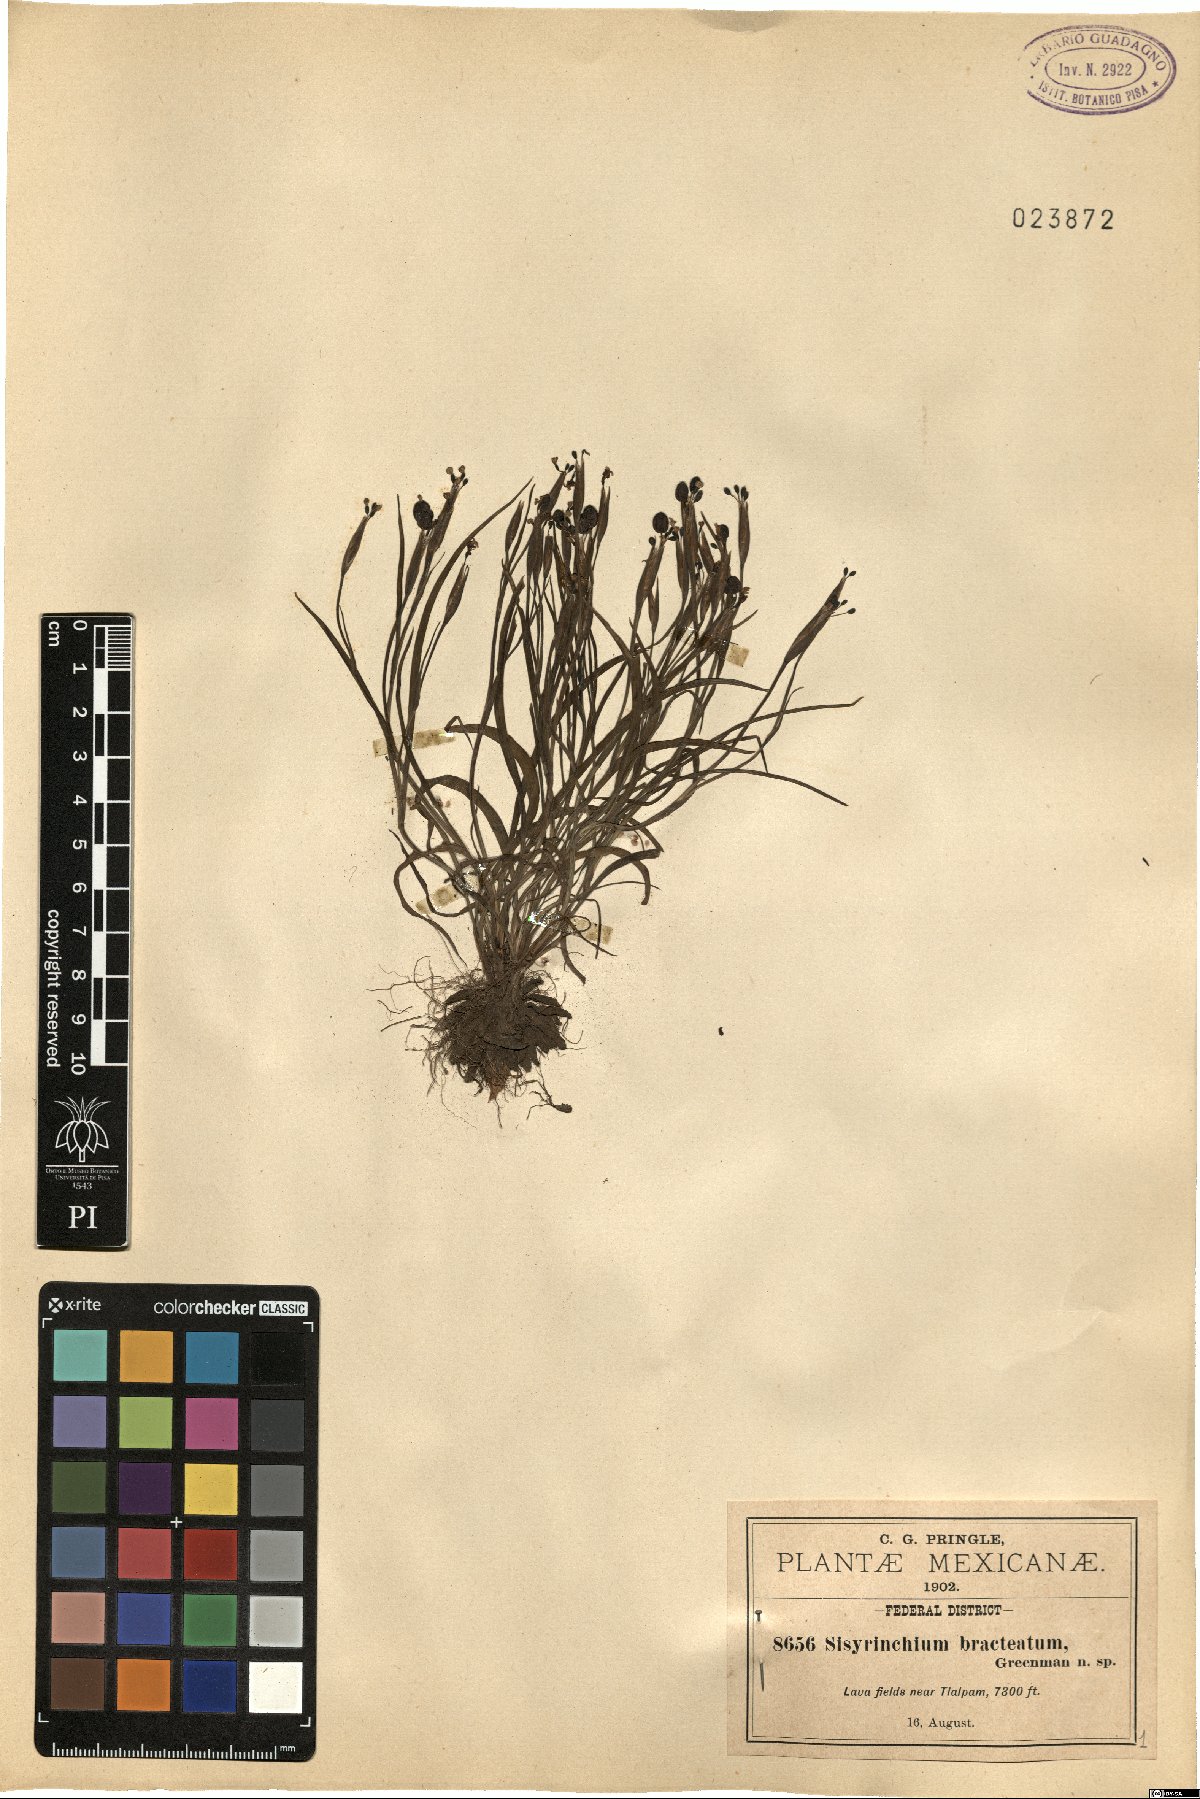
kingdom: Plantae
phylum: Tracheophyta
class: Liliopsida
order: Asparagales
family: Iridaceae
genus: Sisyrinchium
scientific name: Sisyrinchium tenuifolium
